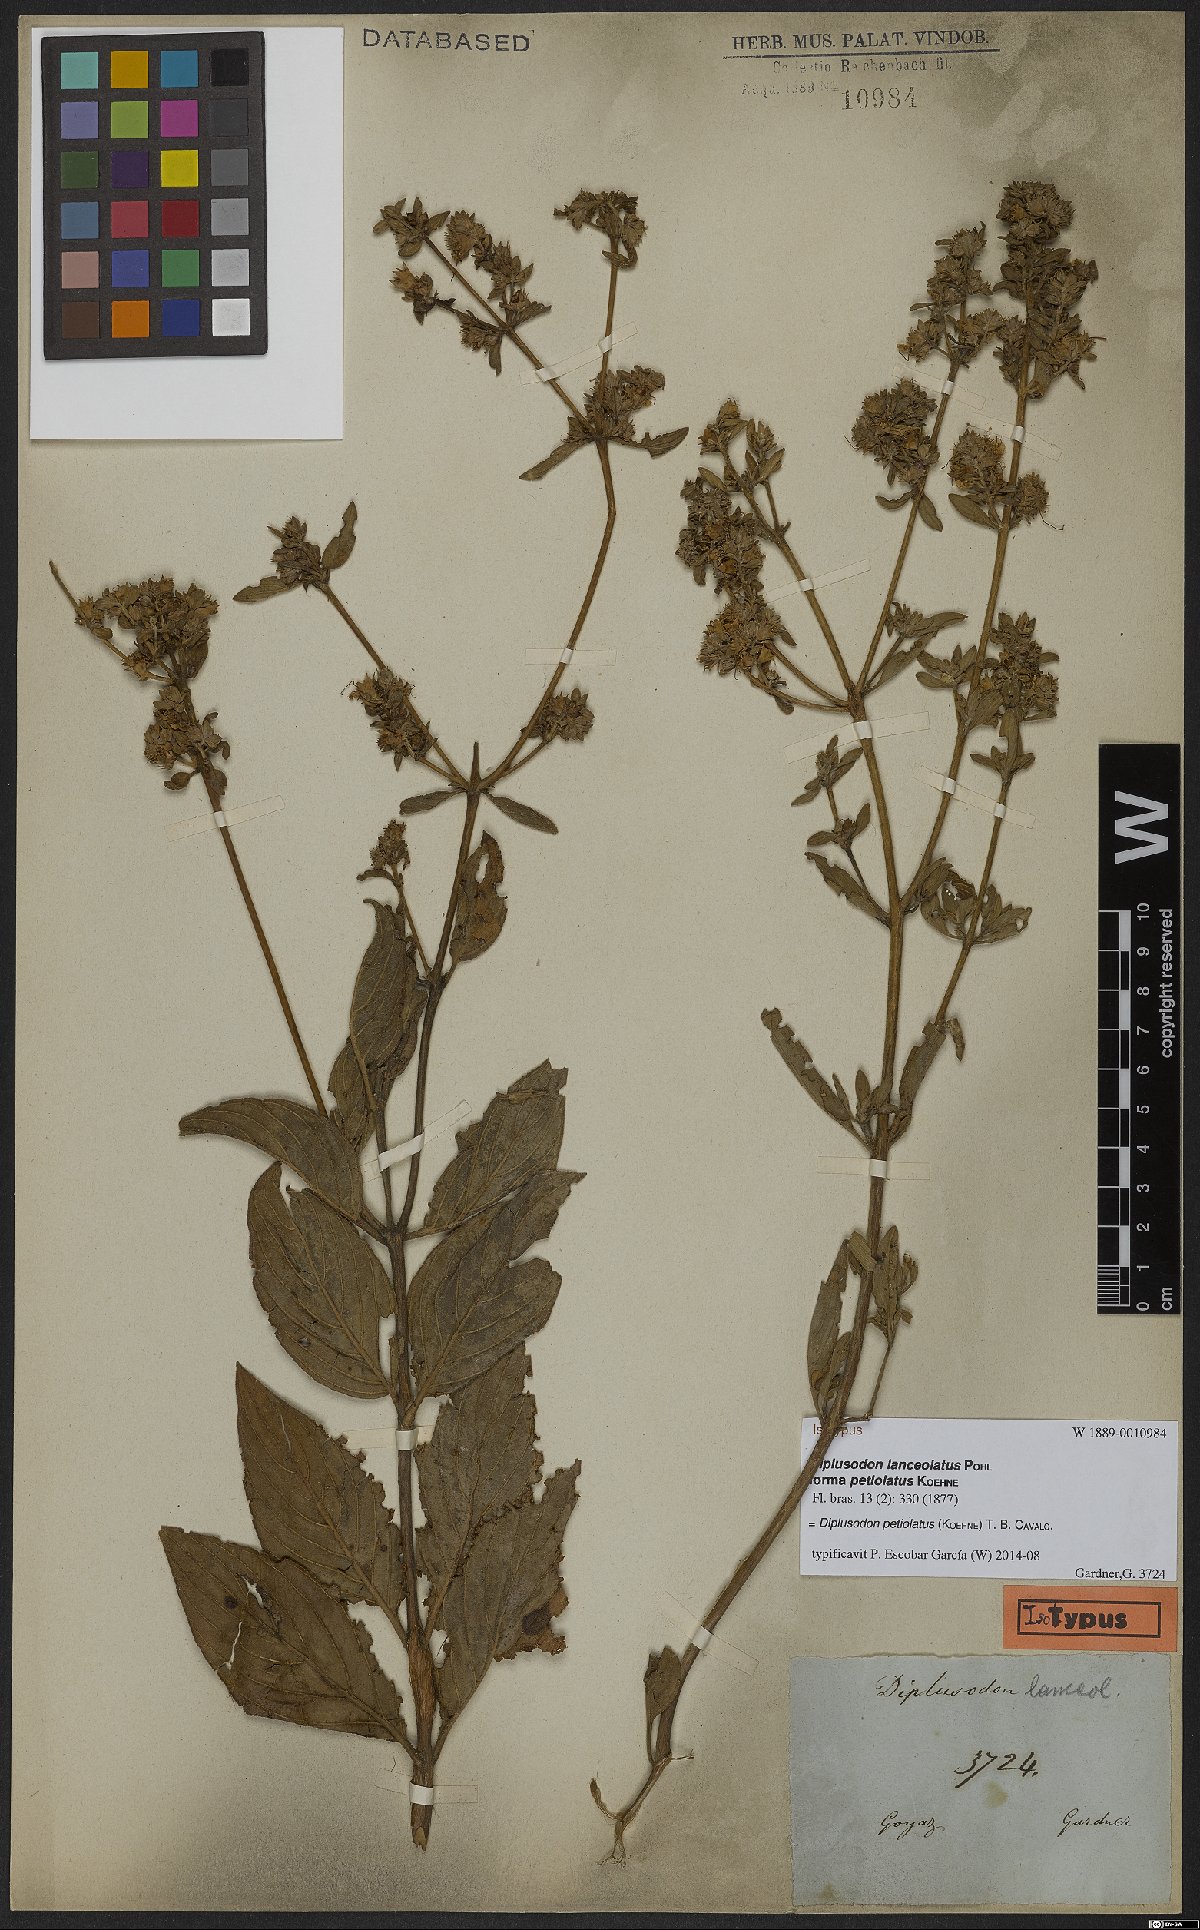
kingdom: Plantae
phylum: Tracheophyta
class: Magnoliopsida
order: Myrtales
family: Lythraceae
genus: Diplusodon
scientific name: Diplusodon petiolatus
